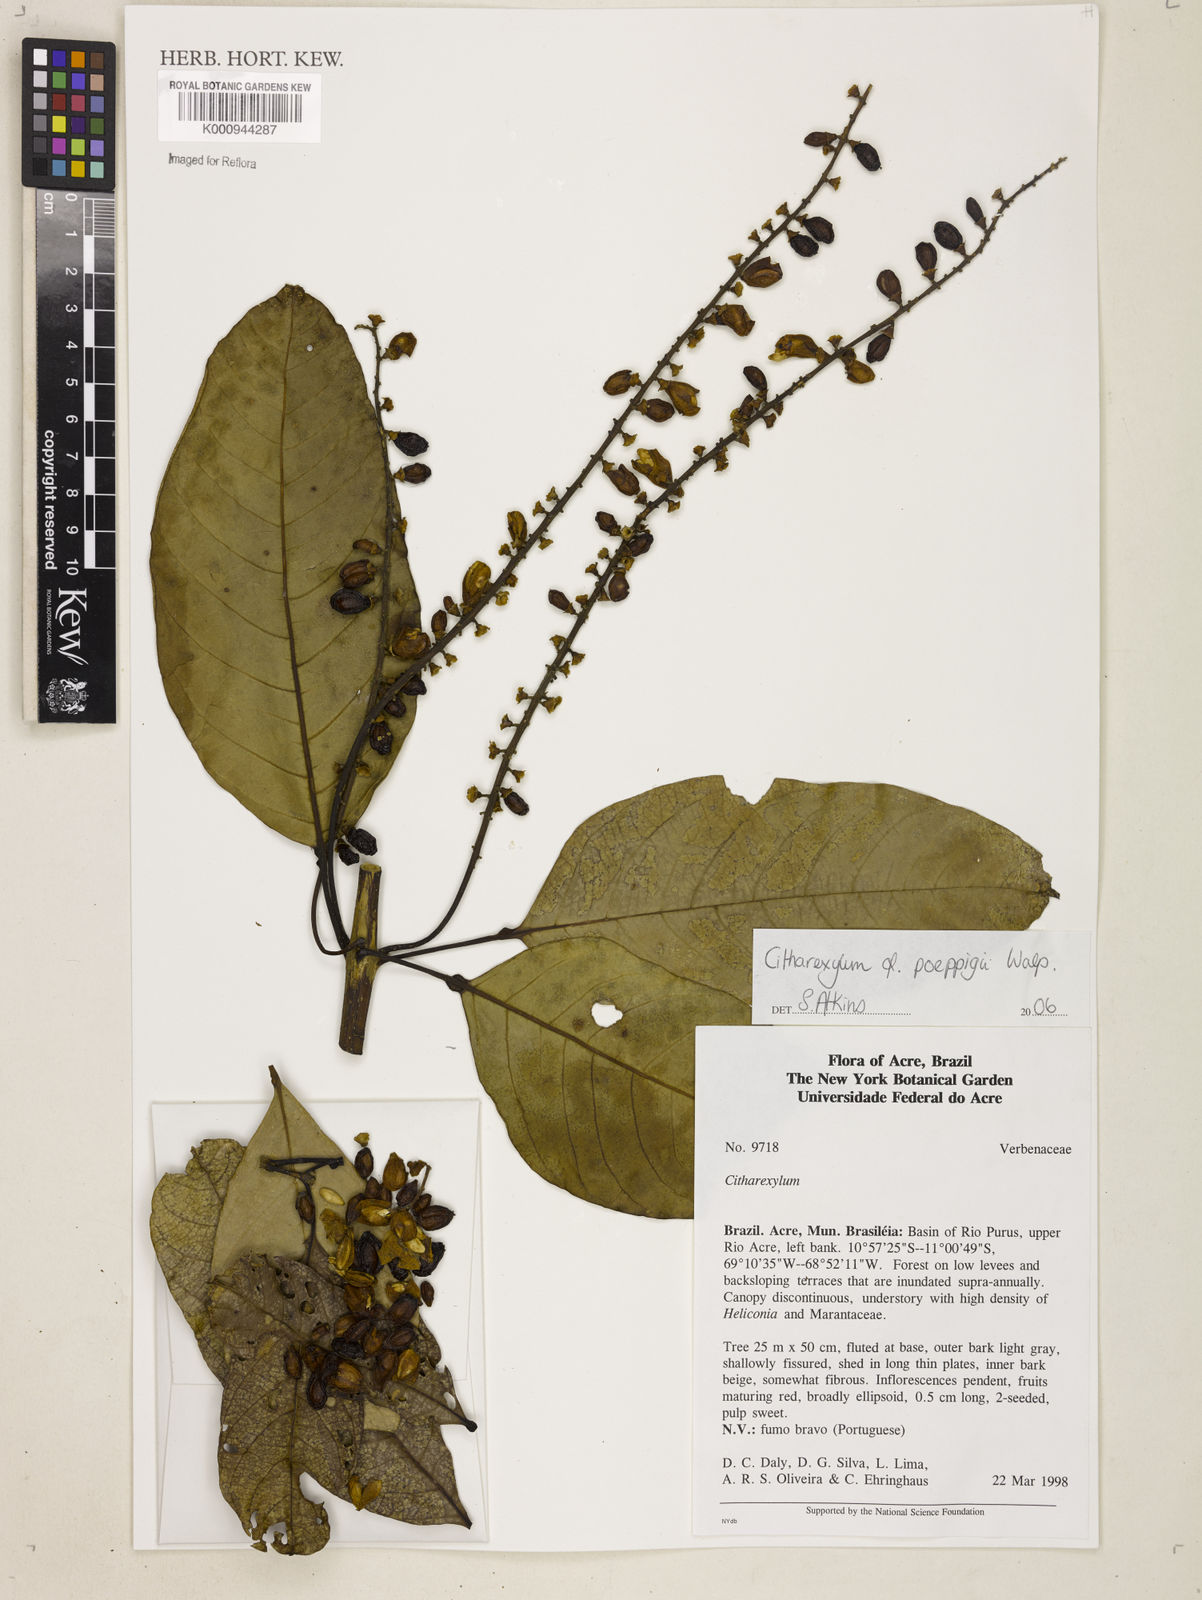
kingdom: Plantae
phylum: Tracheophyta
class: Magnoliopsida
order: Lamiales
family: Verbenaceae
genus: Citharexylum
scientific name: Citharexylum poeppigii
